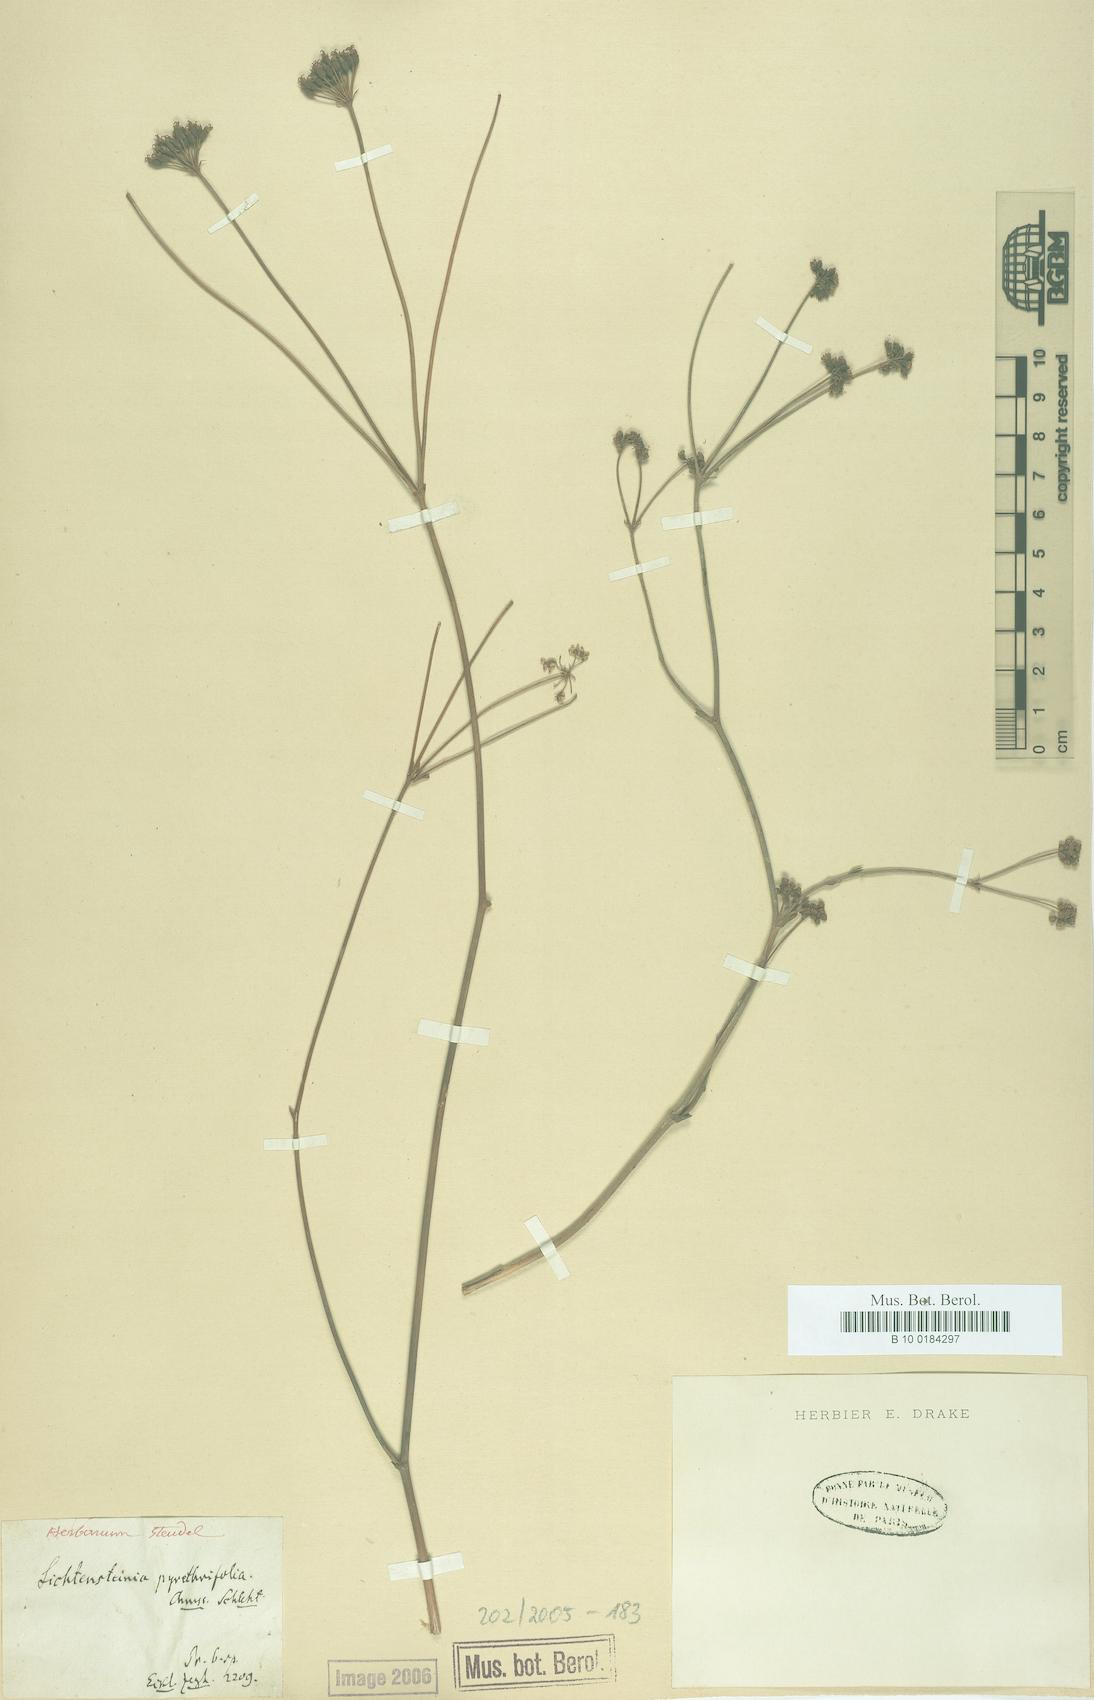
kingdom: Plantae
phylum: Tracheophyta
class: Magnoliopsida
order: Apiales
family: Apiaceae
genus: Lichtensteinia
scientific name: Lichtensteinia interrupta
